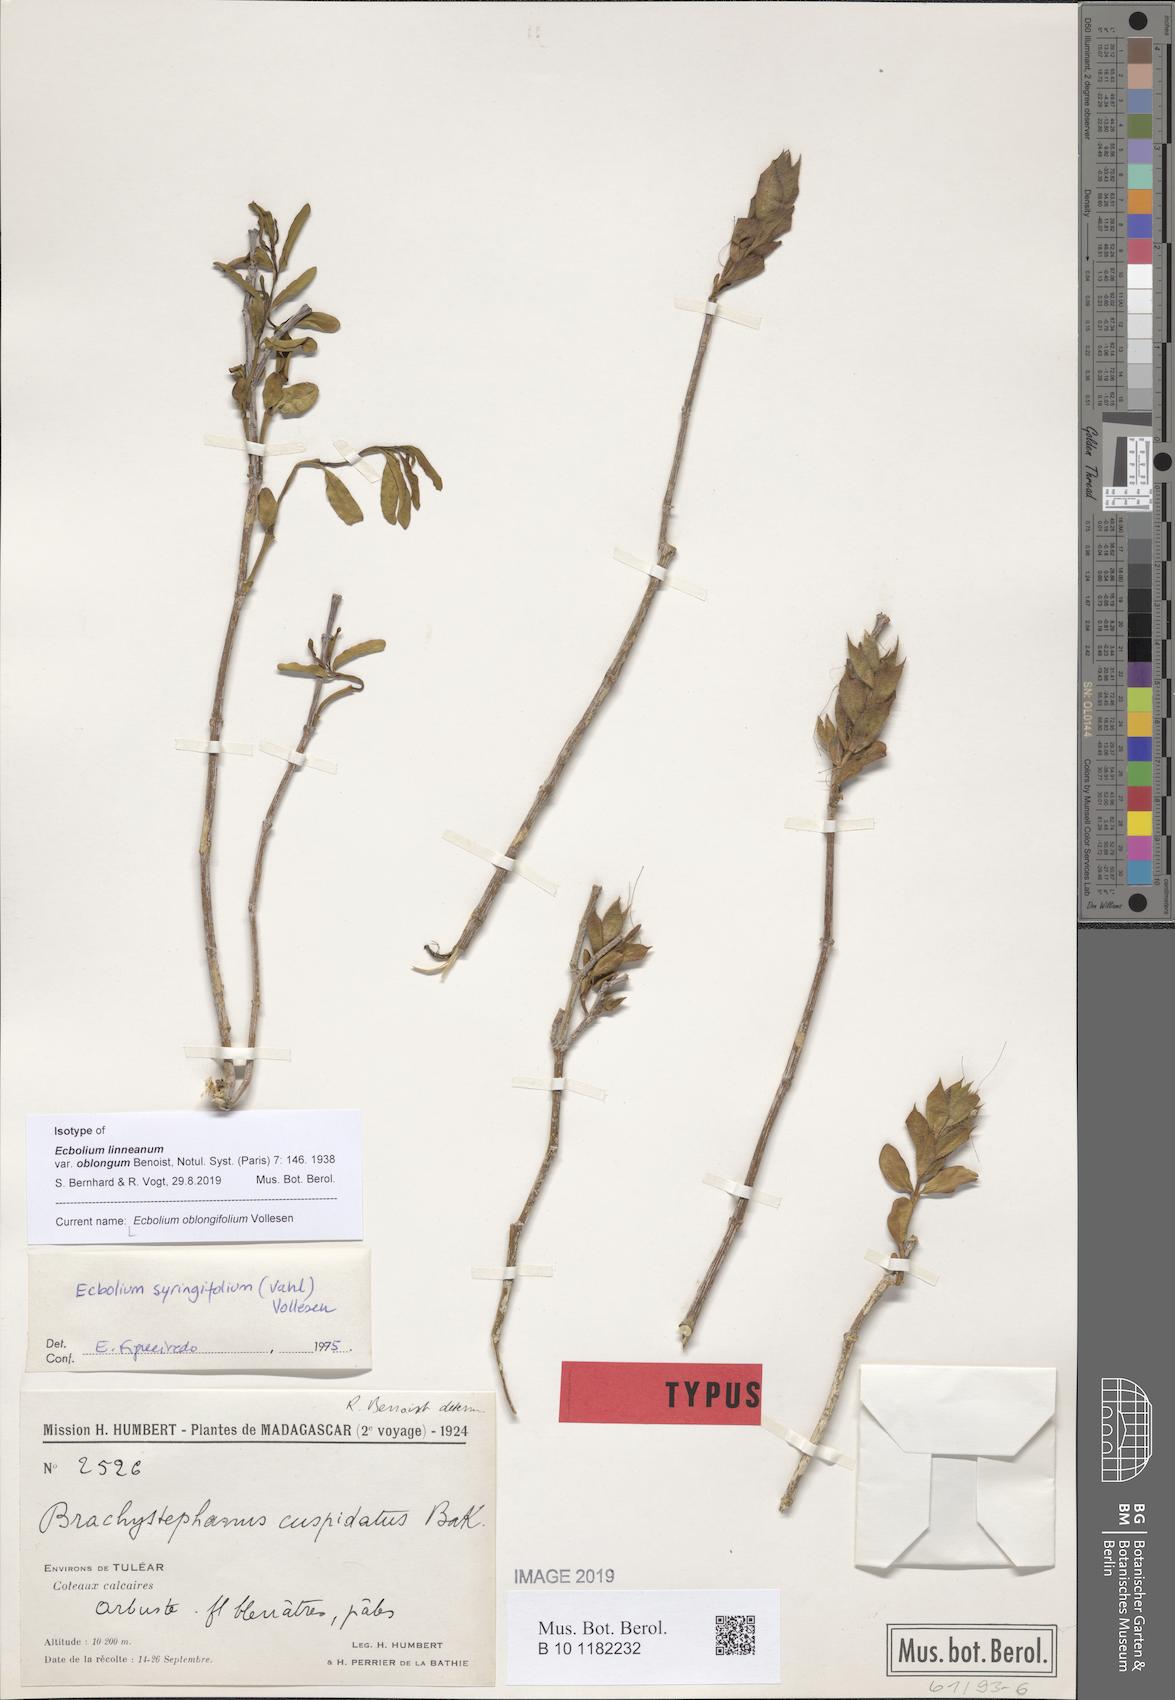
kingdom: Plantae
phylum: Tracheophyta
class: Magnoliopsida
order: Lamiales
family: Acanthaceae
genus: Ecbolium
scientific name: Ecbolium oblongifolium
